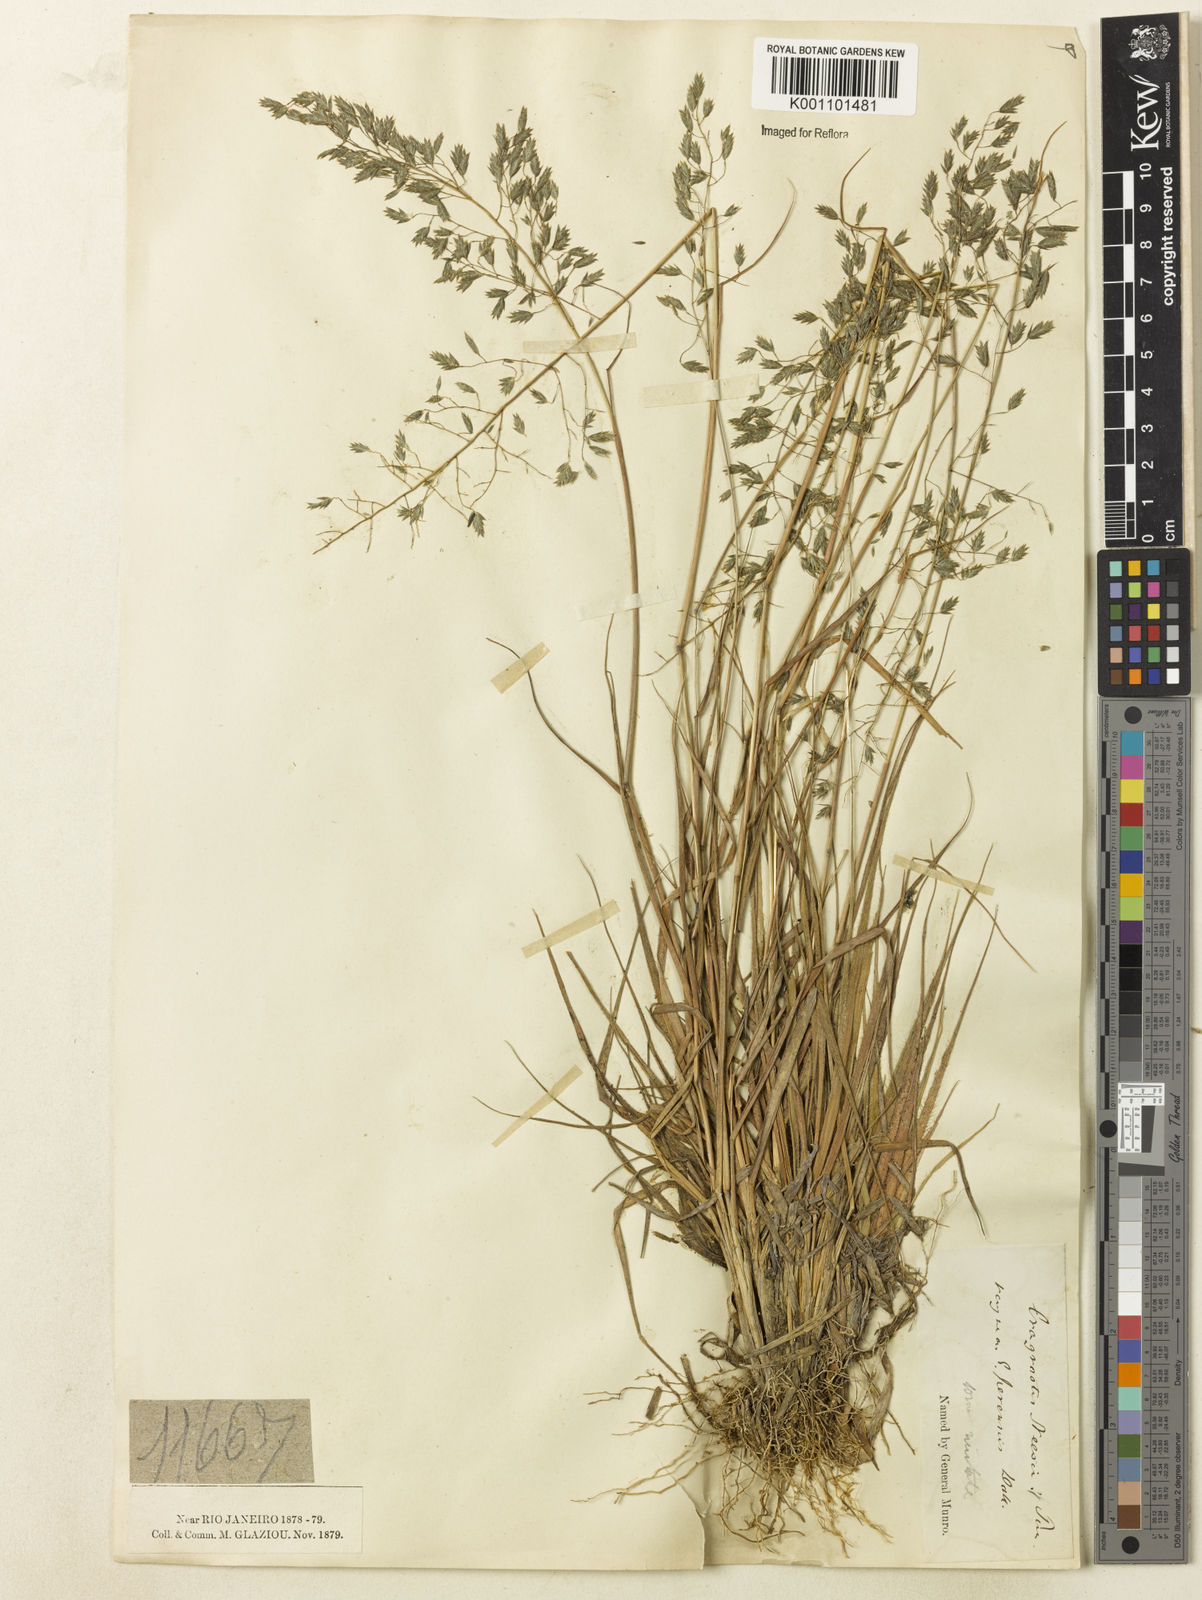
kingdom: Plantae
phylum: Tracheophyta
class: Liliopsida
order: Poales
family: Poaceae
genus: Eragrostis
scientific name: Eragrostis sclerophylla
